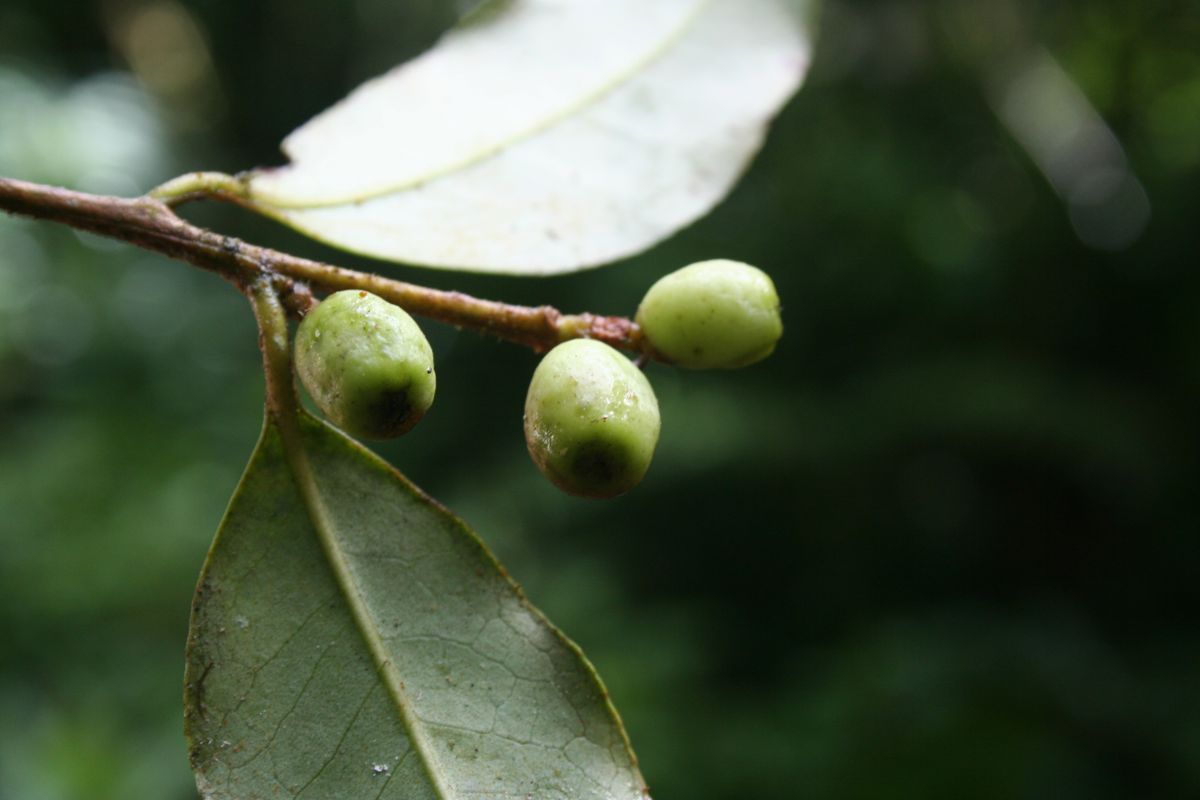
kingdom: Plantae
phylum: Tracheophyta
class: Magnoliopsida
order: Ericales
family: Symplocaceae
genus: Symplocos
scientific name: Symplocos pycnantha
